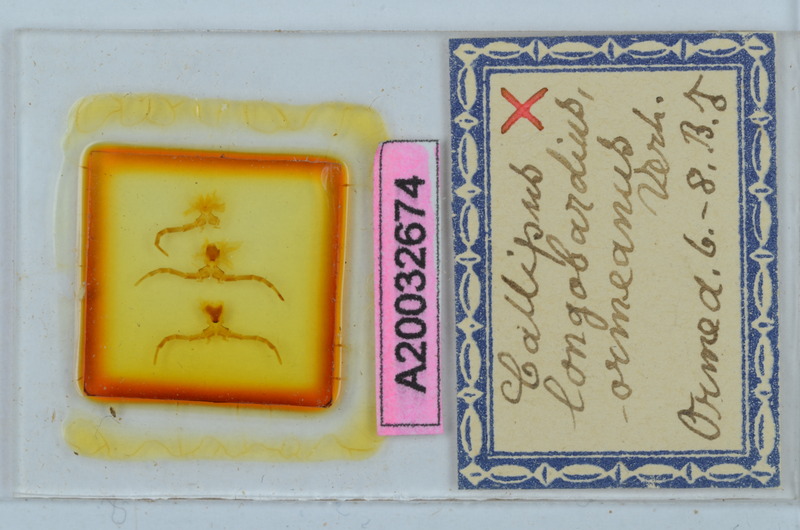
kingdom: Animalia
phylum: Arthropoda
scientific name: Arthropoda
